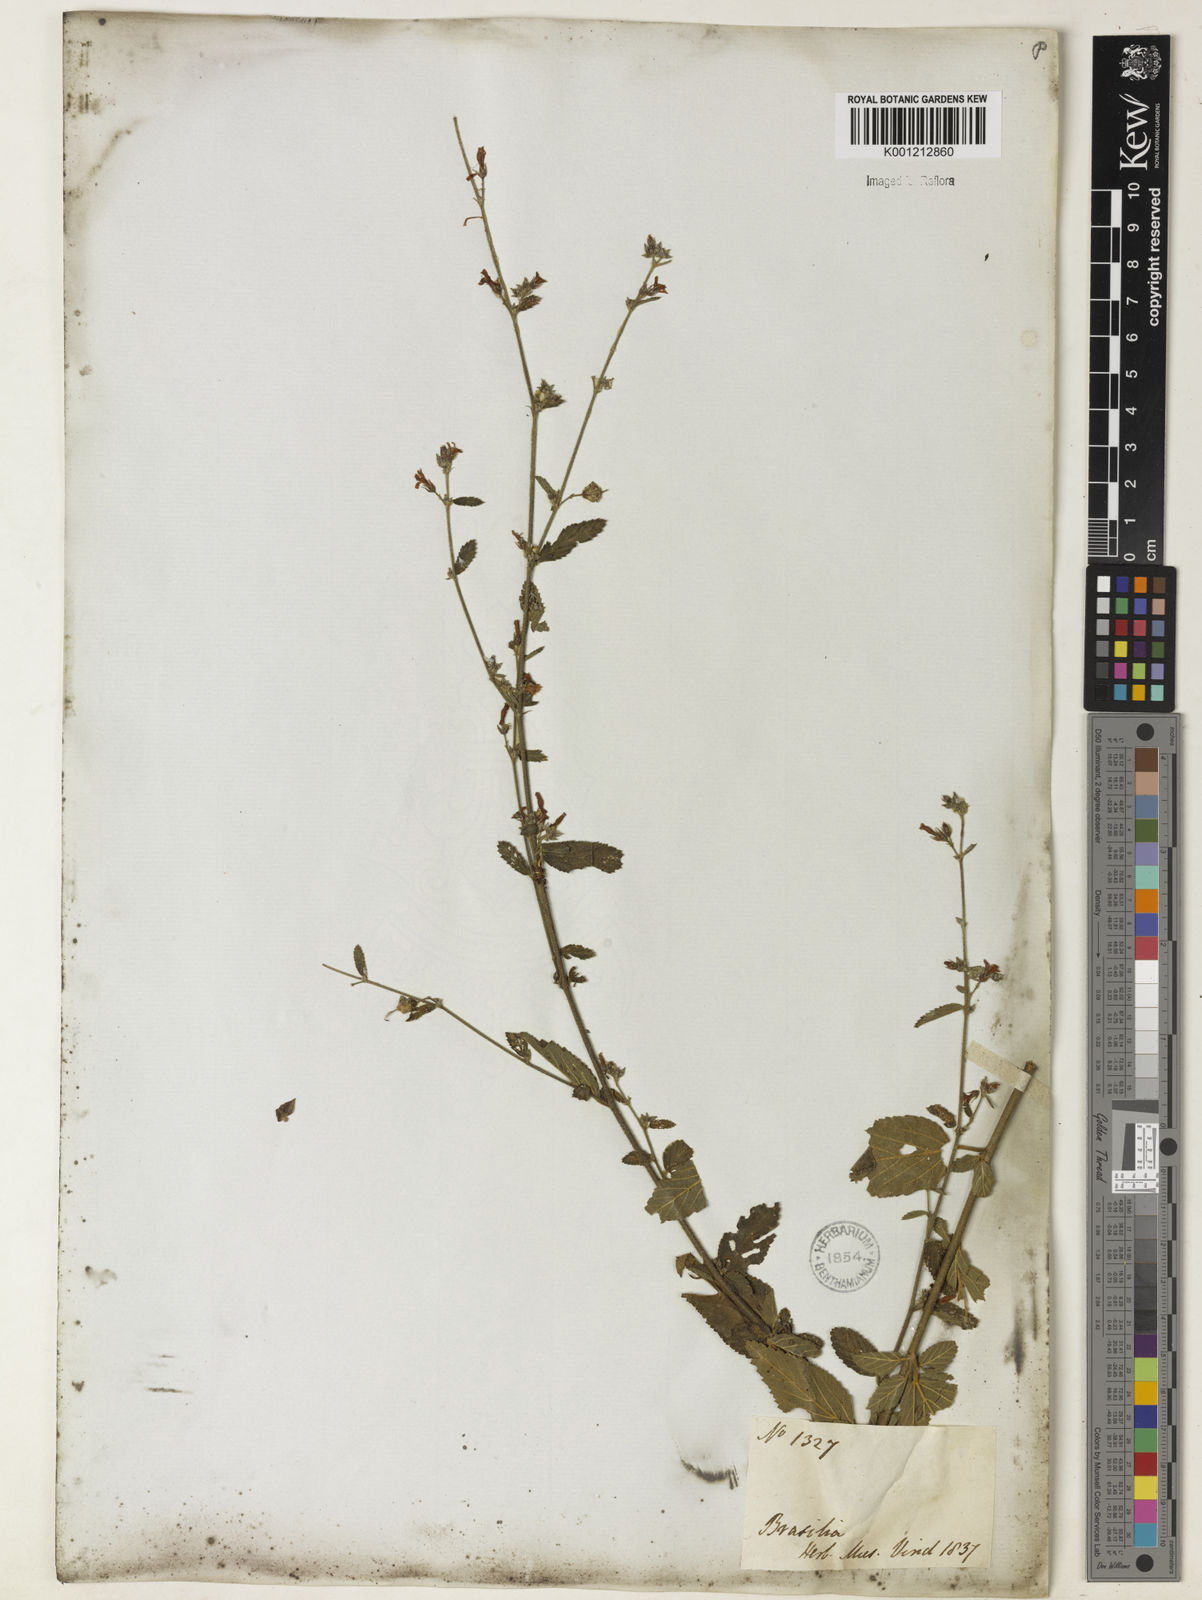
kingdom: Plantae
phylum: Tracheophyta
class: Magnoliopsida
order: Malvales
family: Malvaceae
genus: Melochia
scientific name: Melochia pyramidata
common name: Pyramidflower
